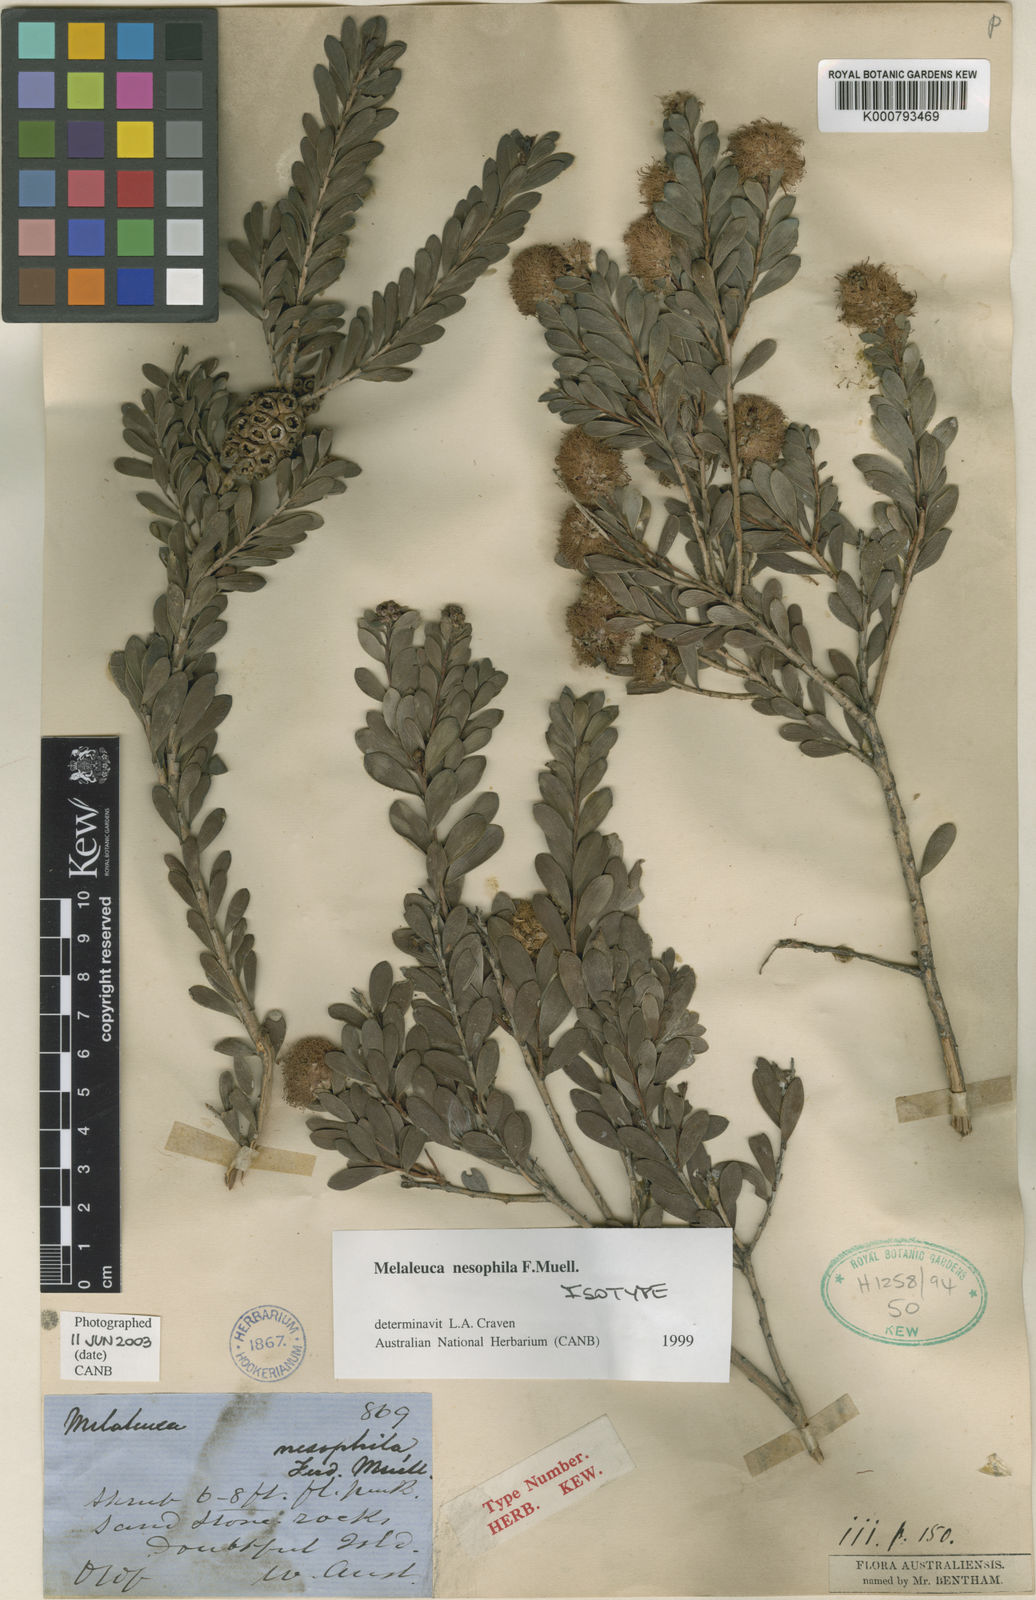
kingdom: Plantae
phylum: Tracheophyta
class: Magnoliopsida
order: Myrtales
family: Myrtaceae
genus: Melaleuca
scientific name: Melaleuca nesophila
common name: Mauve honey myrtle
